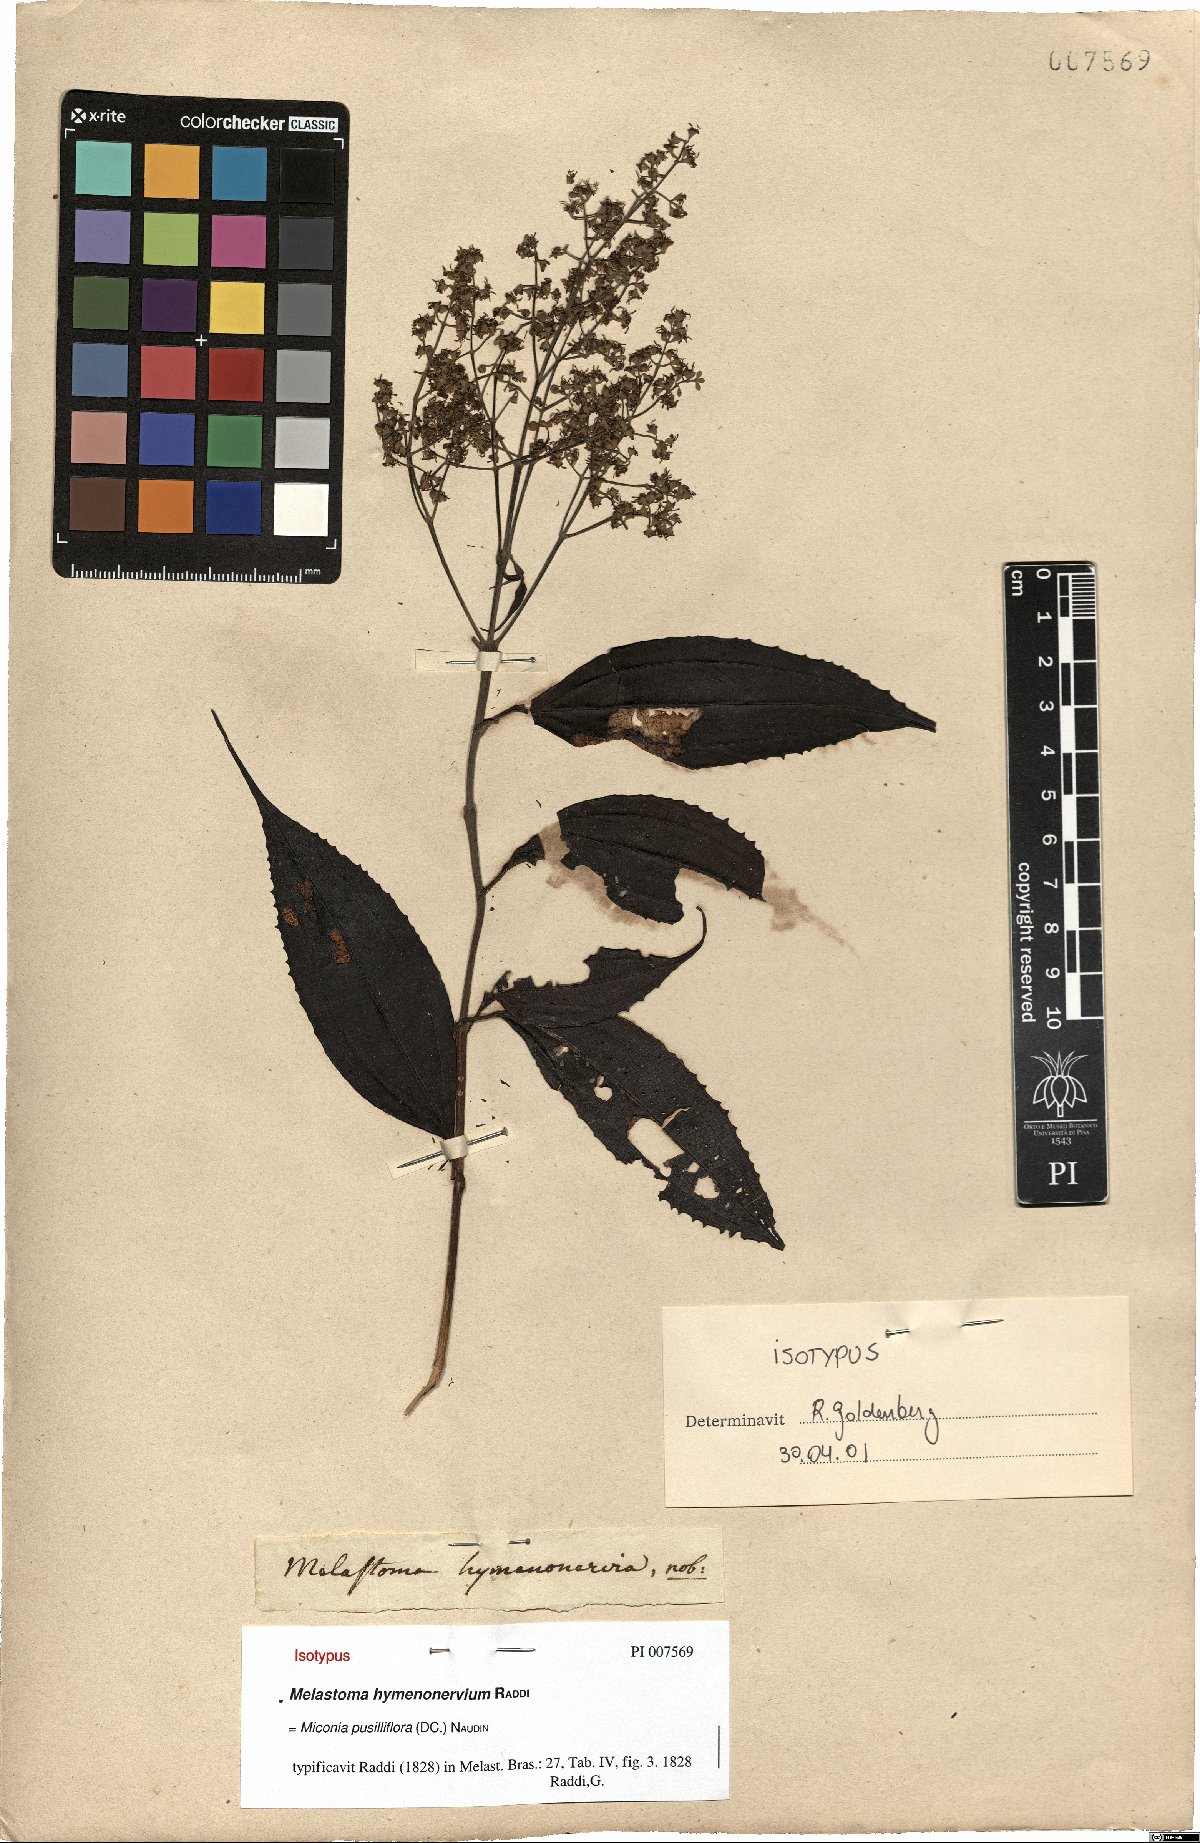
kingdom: Plantae
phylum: Tracheophyta
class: Magnoliopsida
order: Myrtales
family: Melastomataceae
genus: Miconia
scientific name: Miconia pusilliflora
